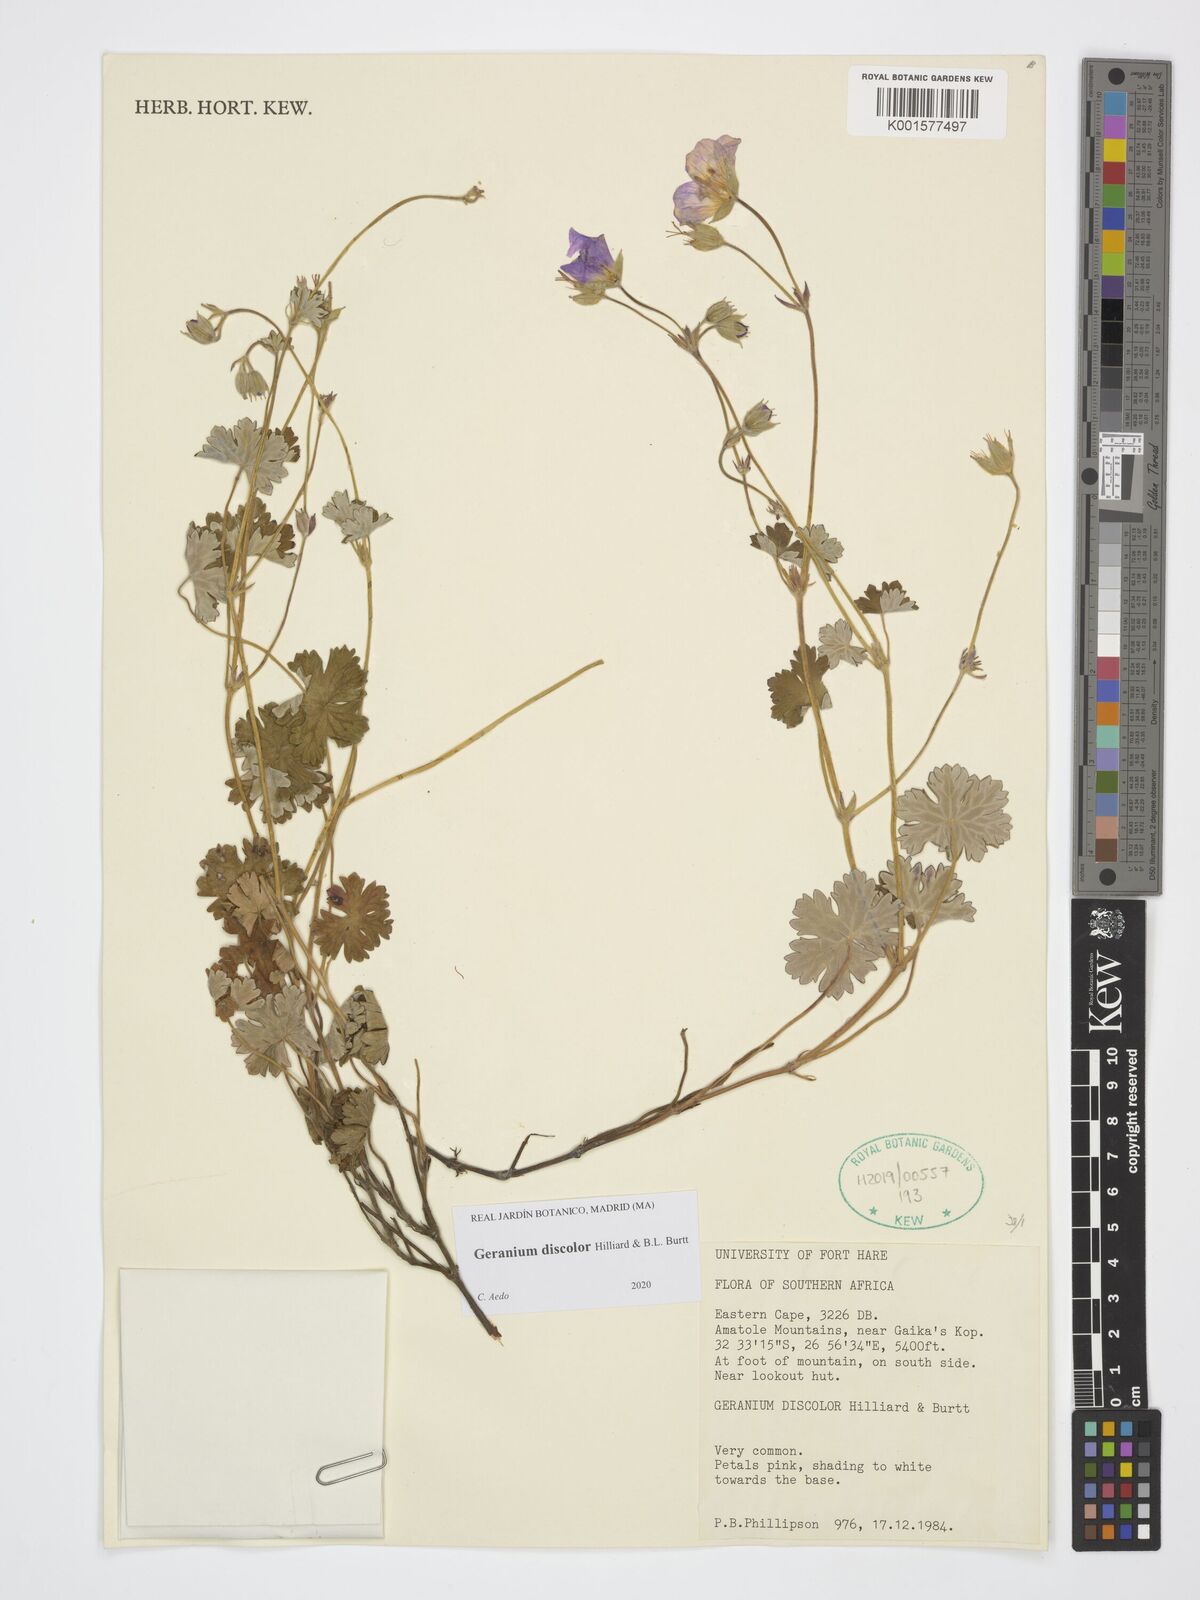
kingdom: Plantae
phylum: Tracheophyta
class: Magnoliopsida
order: Geraniales
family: Geraniaceae
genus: Geranium
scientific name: Geranium discolor
